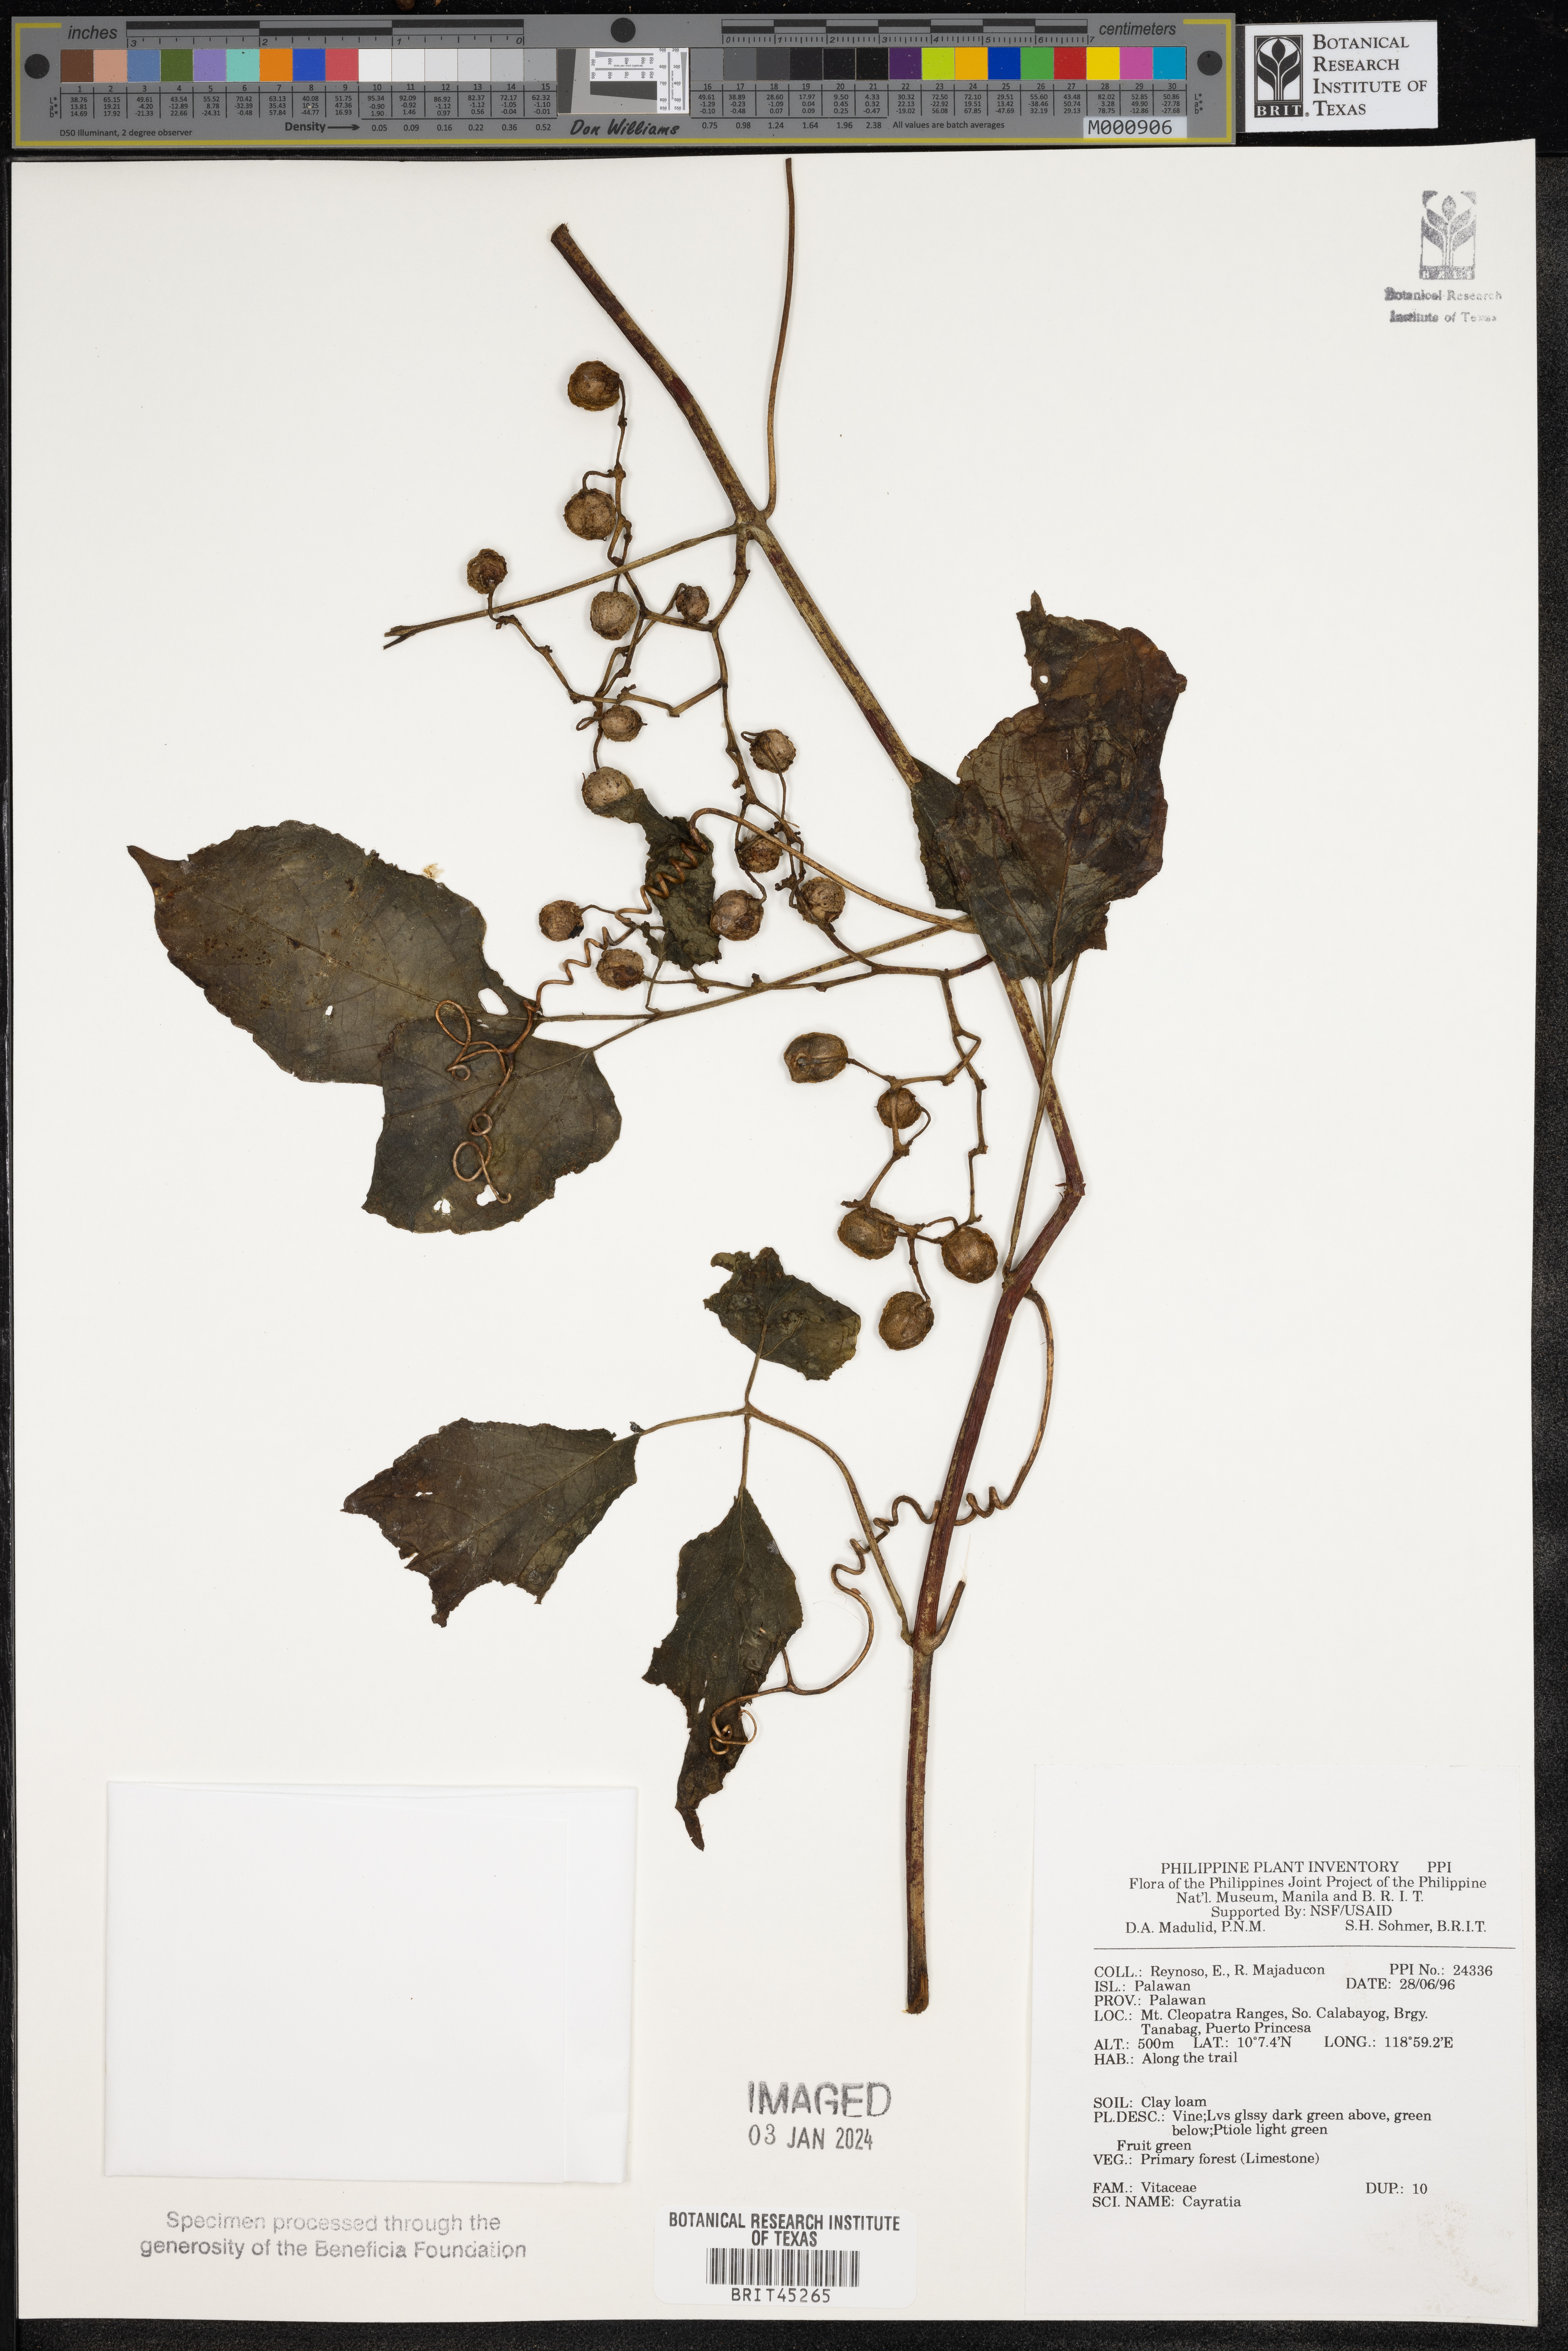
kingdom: Plantae
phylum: Tracheophyta
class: Magnoliopsida
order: Vitales
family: Vitaceae
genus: Cayratia
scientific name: Cayratia
